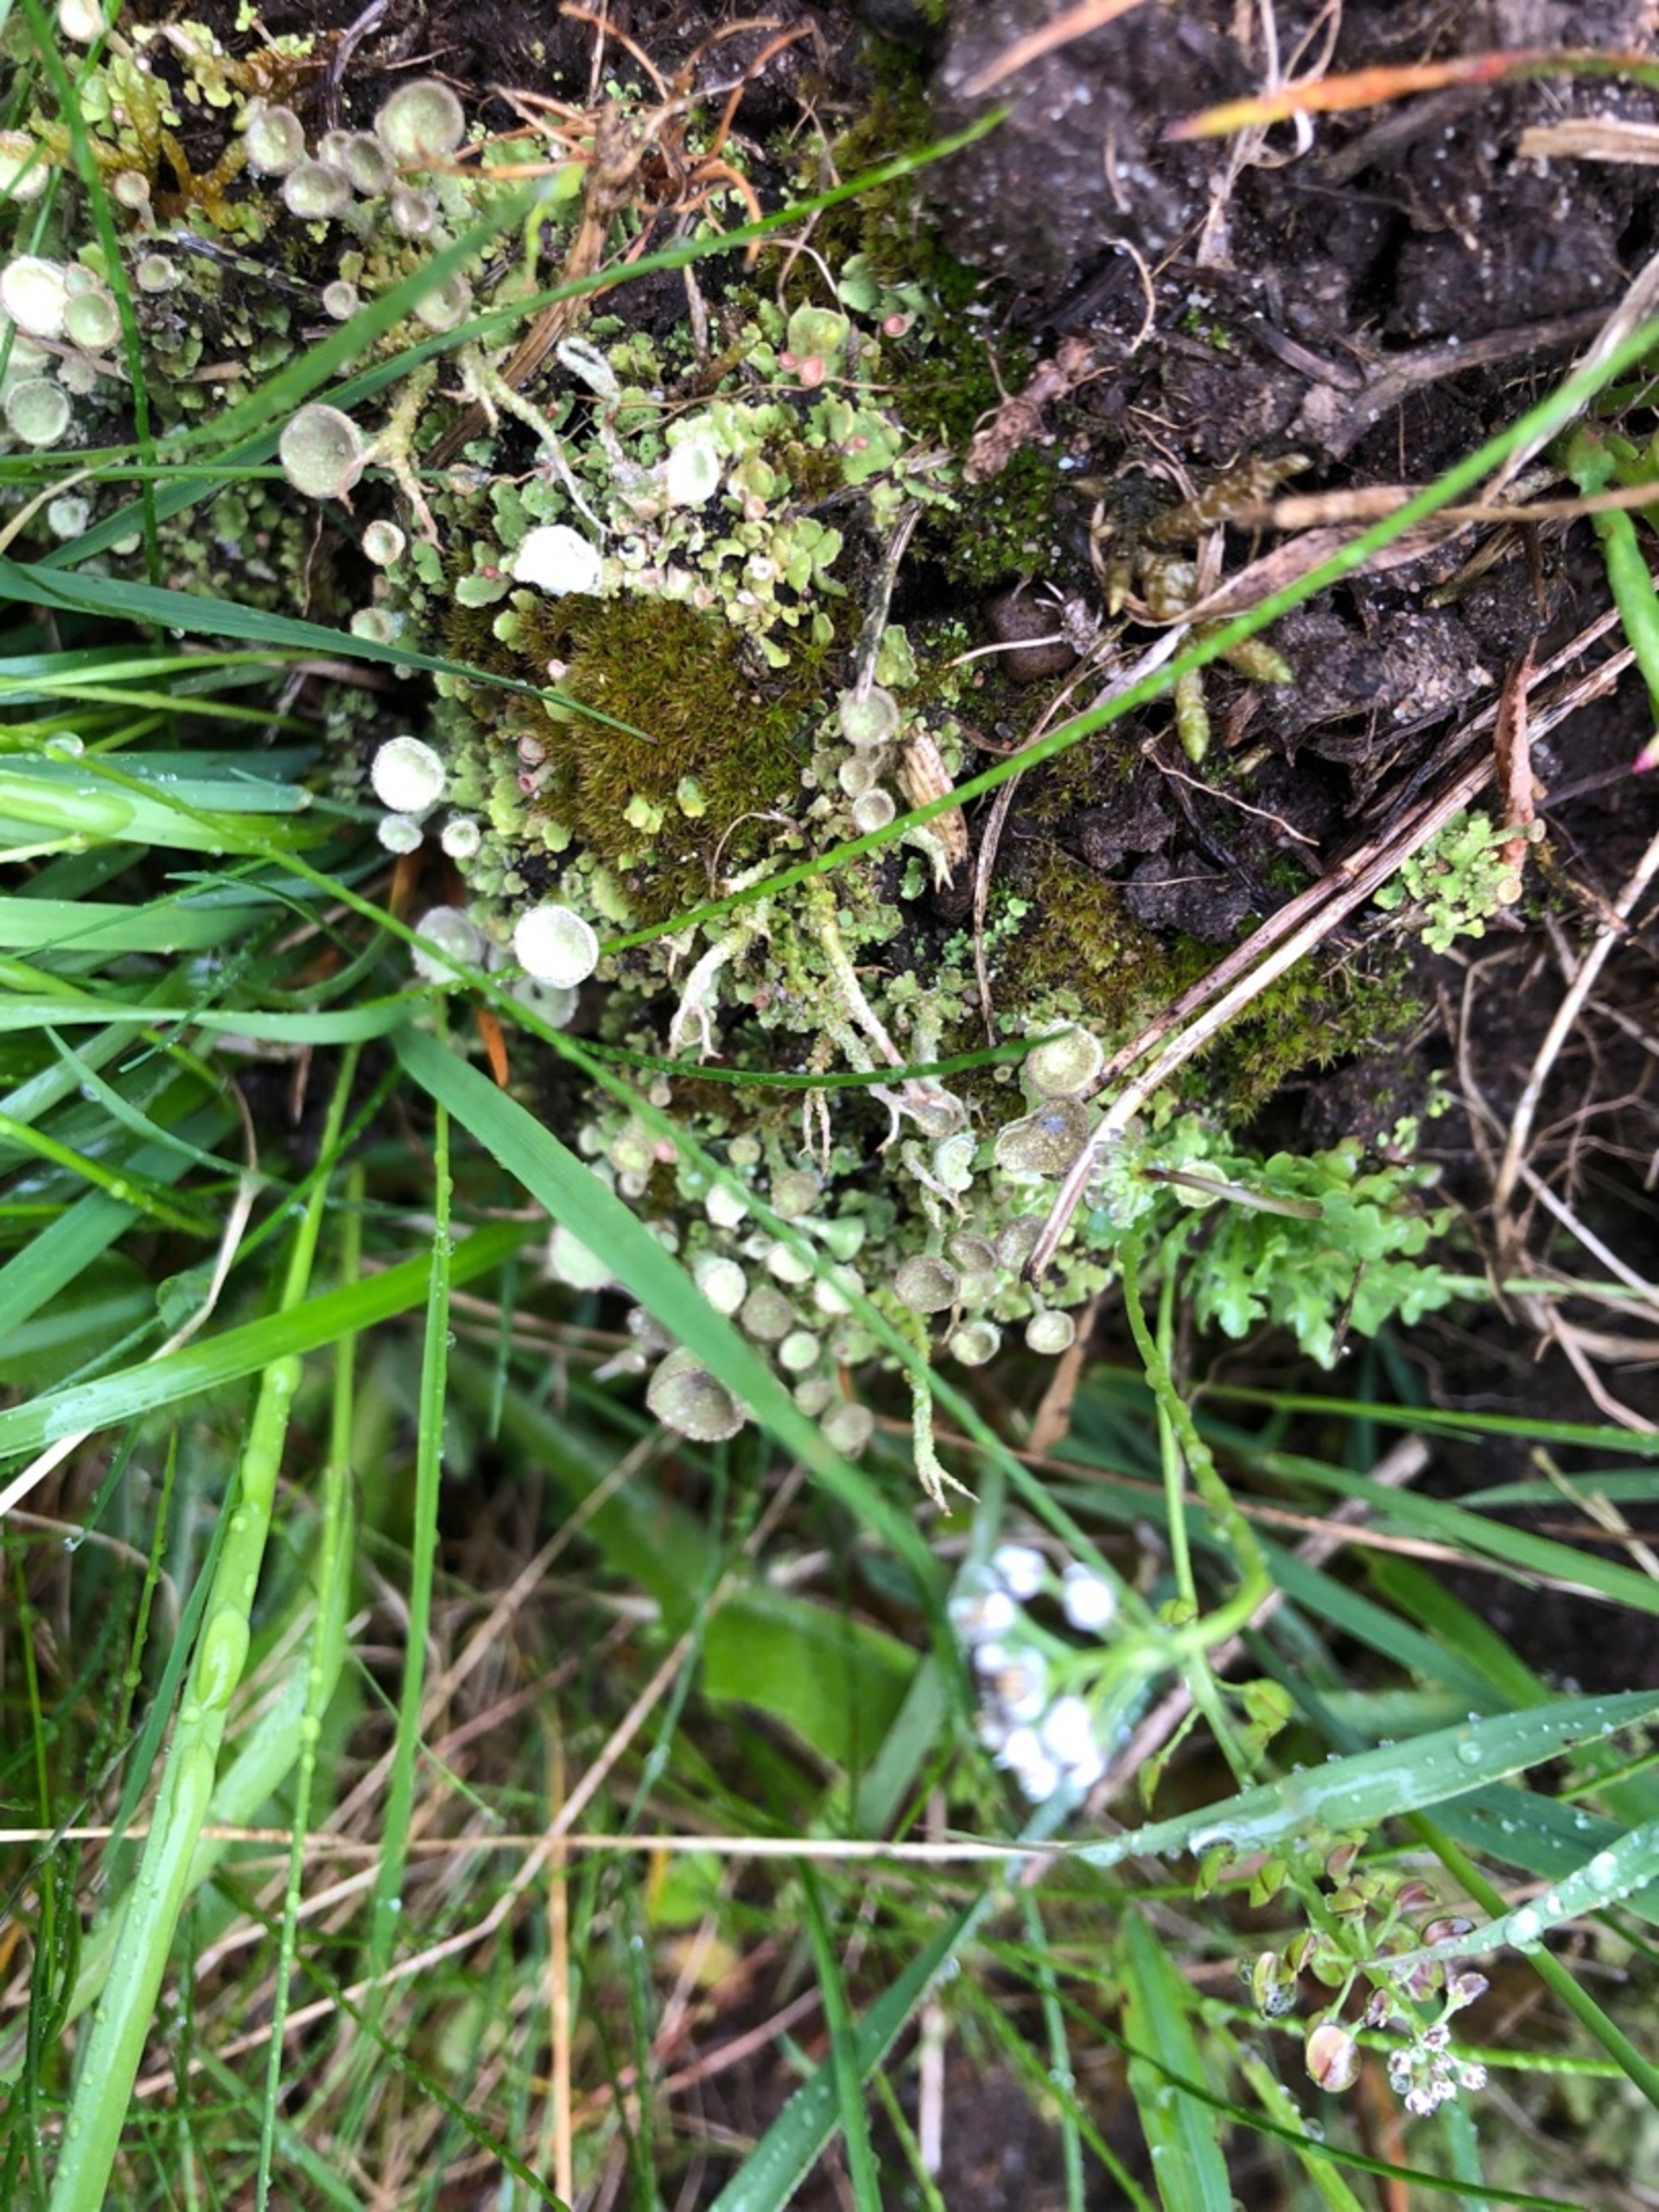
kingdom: Fungi
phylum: Ascomycota
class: Lecanoromycetes
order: Lecanorales
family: Cladoniaceae
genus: Cladonia
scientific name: Cladonia
